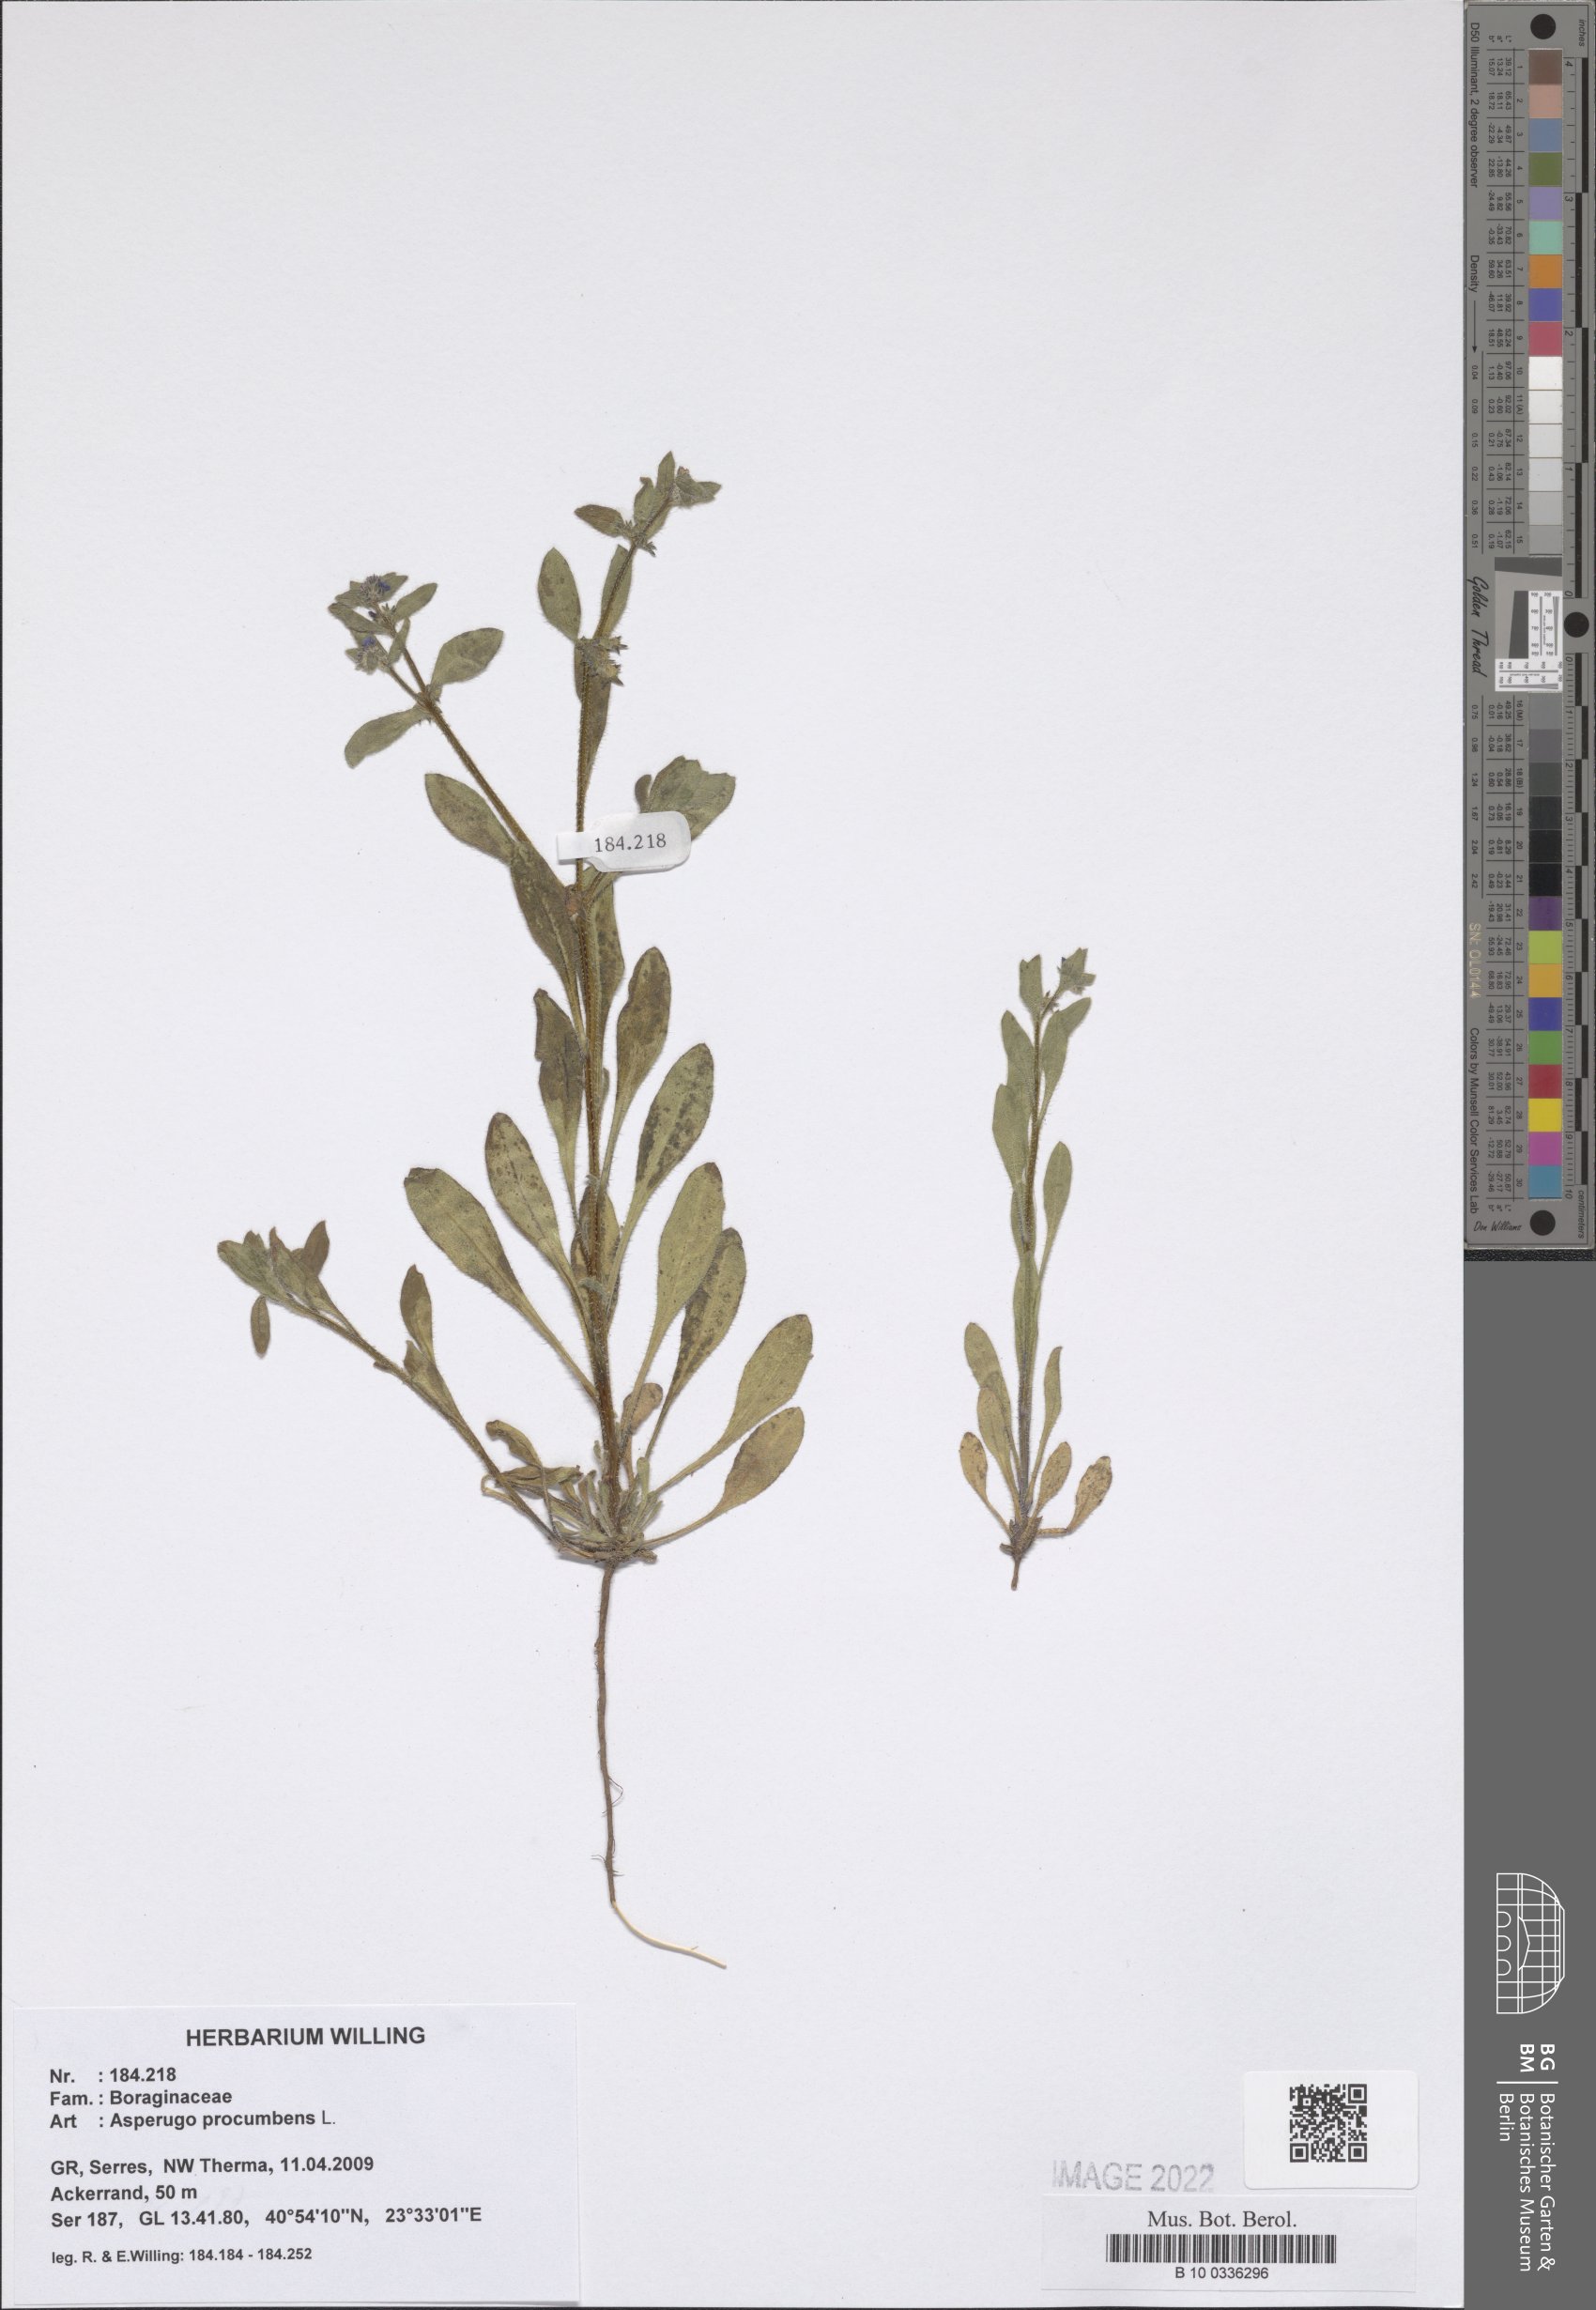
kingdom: Plantae
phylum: Tracheophyta
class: Magnoliopsida
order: Boraginales
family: Boraginaceae
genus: Asperugo
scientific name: Asperugo procumbens
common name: Madwort
